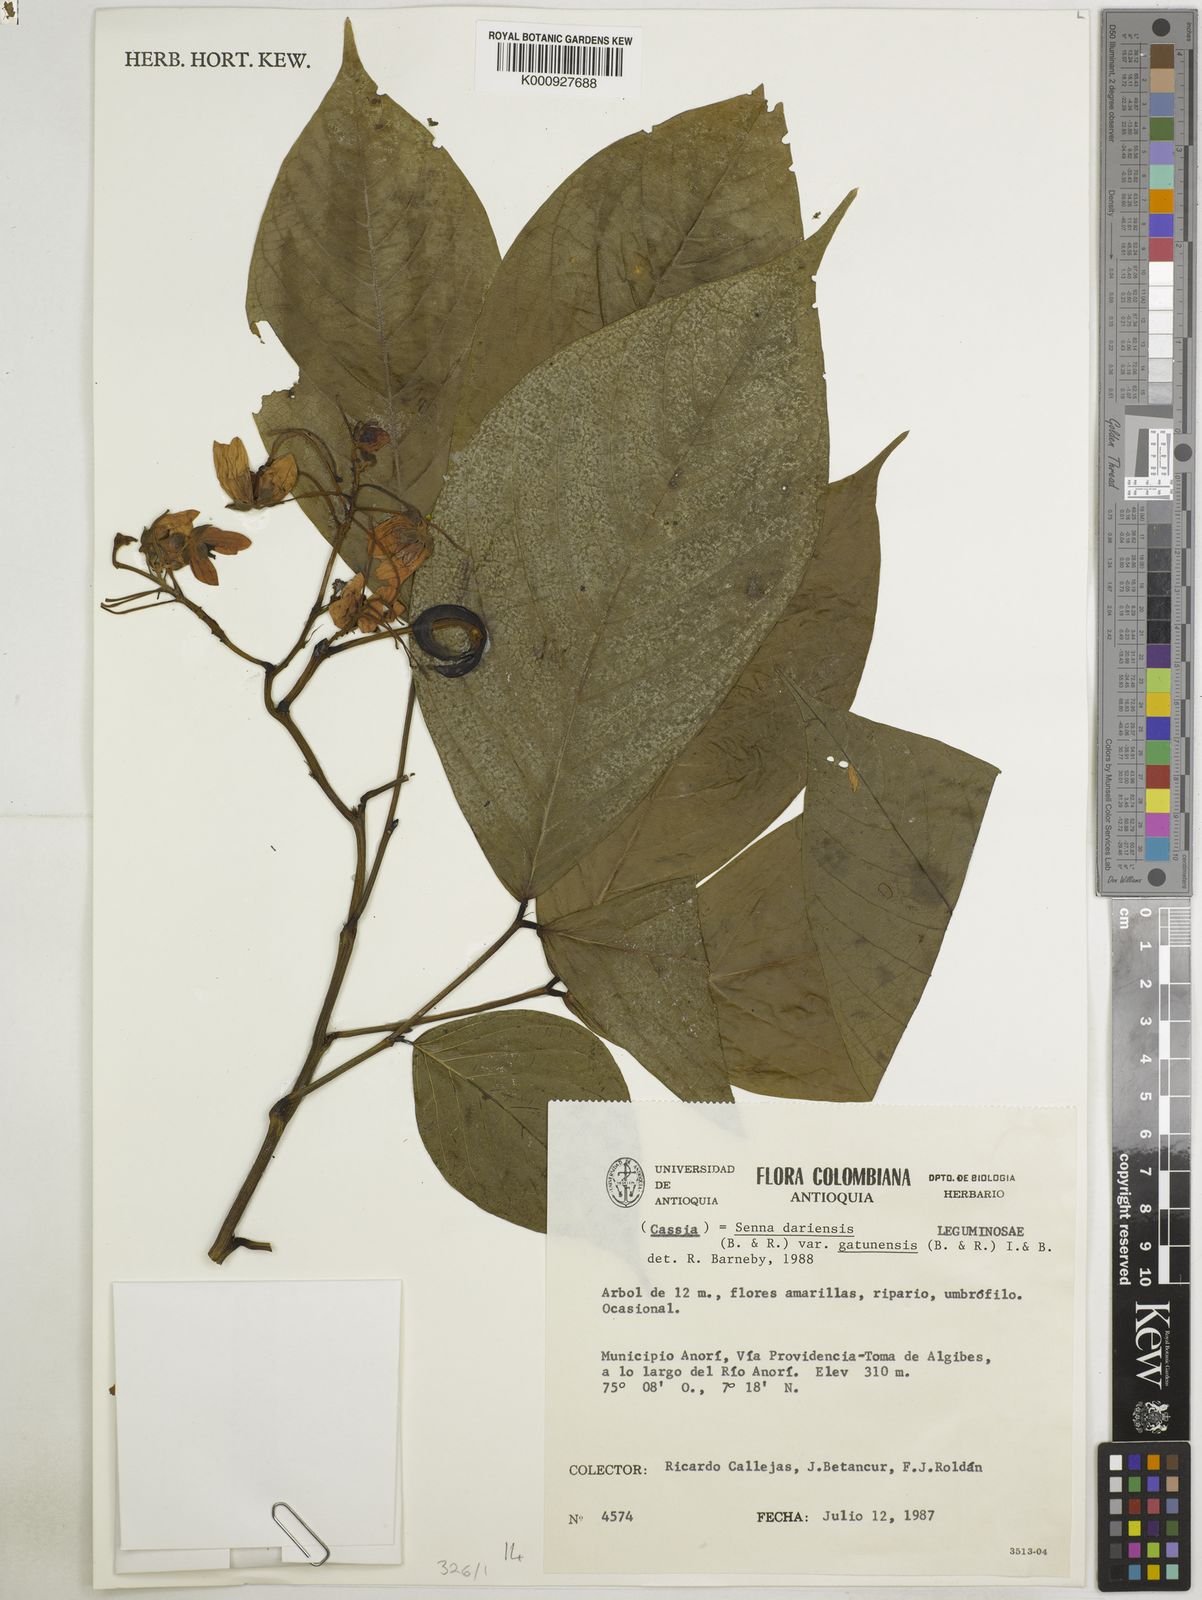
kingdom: Plantae
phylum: Tracheophyta
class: Magnoliopsida
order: Fabales
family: Fabaceae
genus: Senna
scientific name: Senna dariensis
